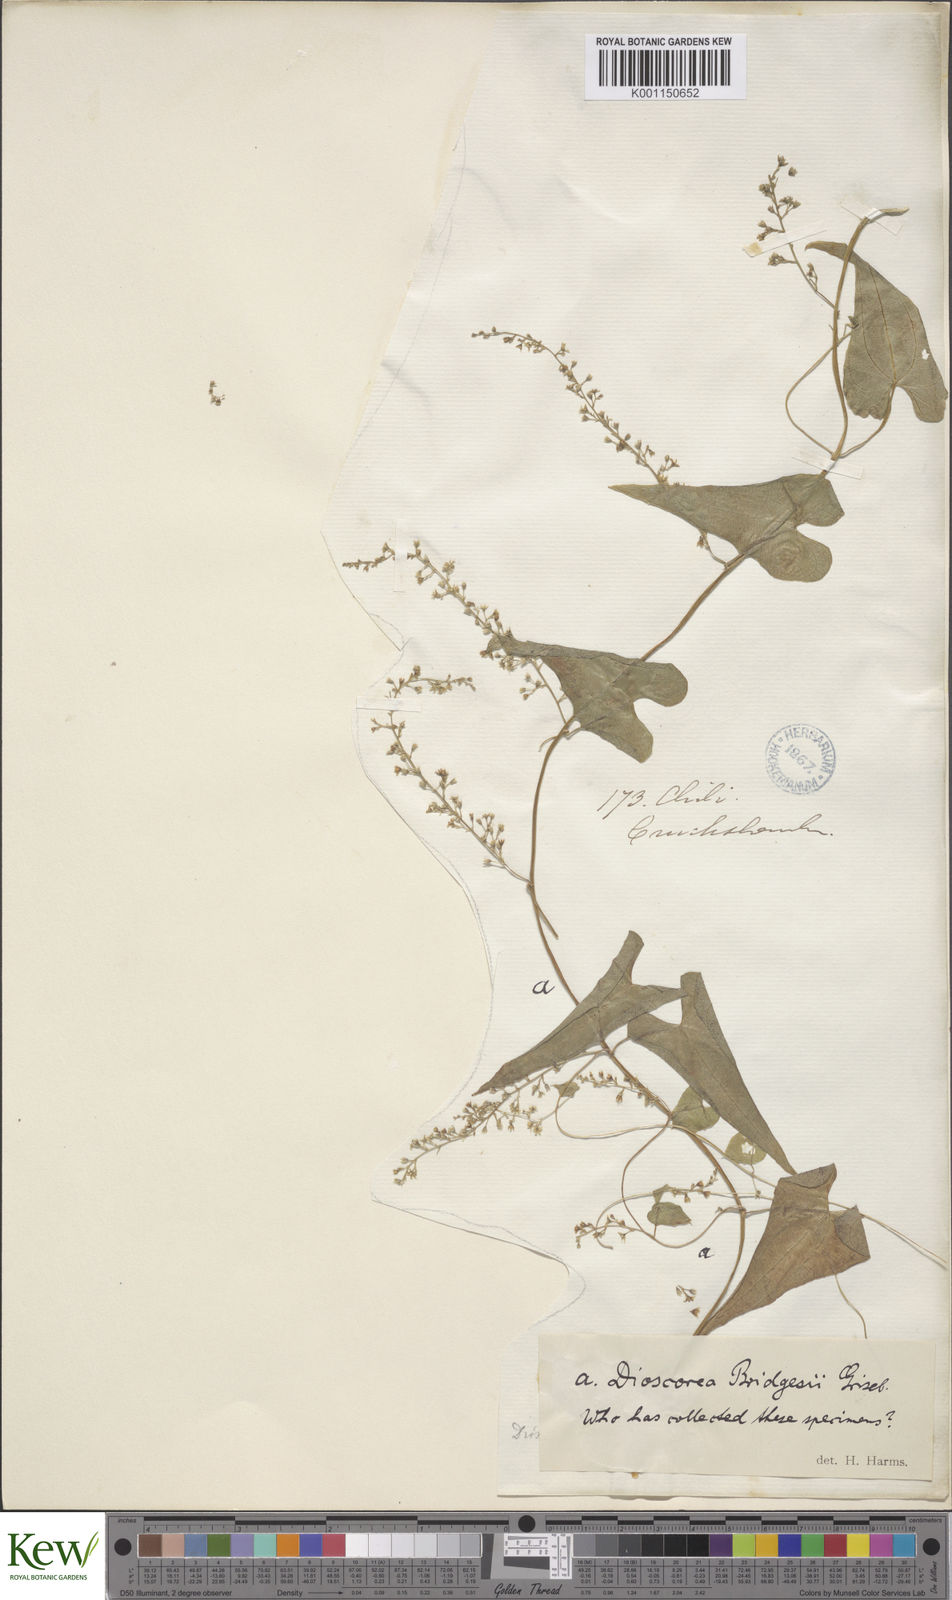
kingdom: Plantae
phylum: Tracheophyta
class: Liliopsida
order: Dioscoreales
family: Dioscoreaceae
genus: Dioscorea
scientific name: Dioscorea bridgesii
